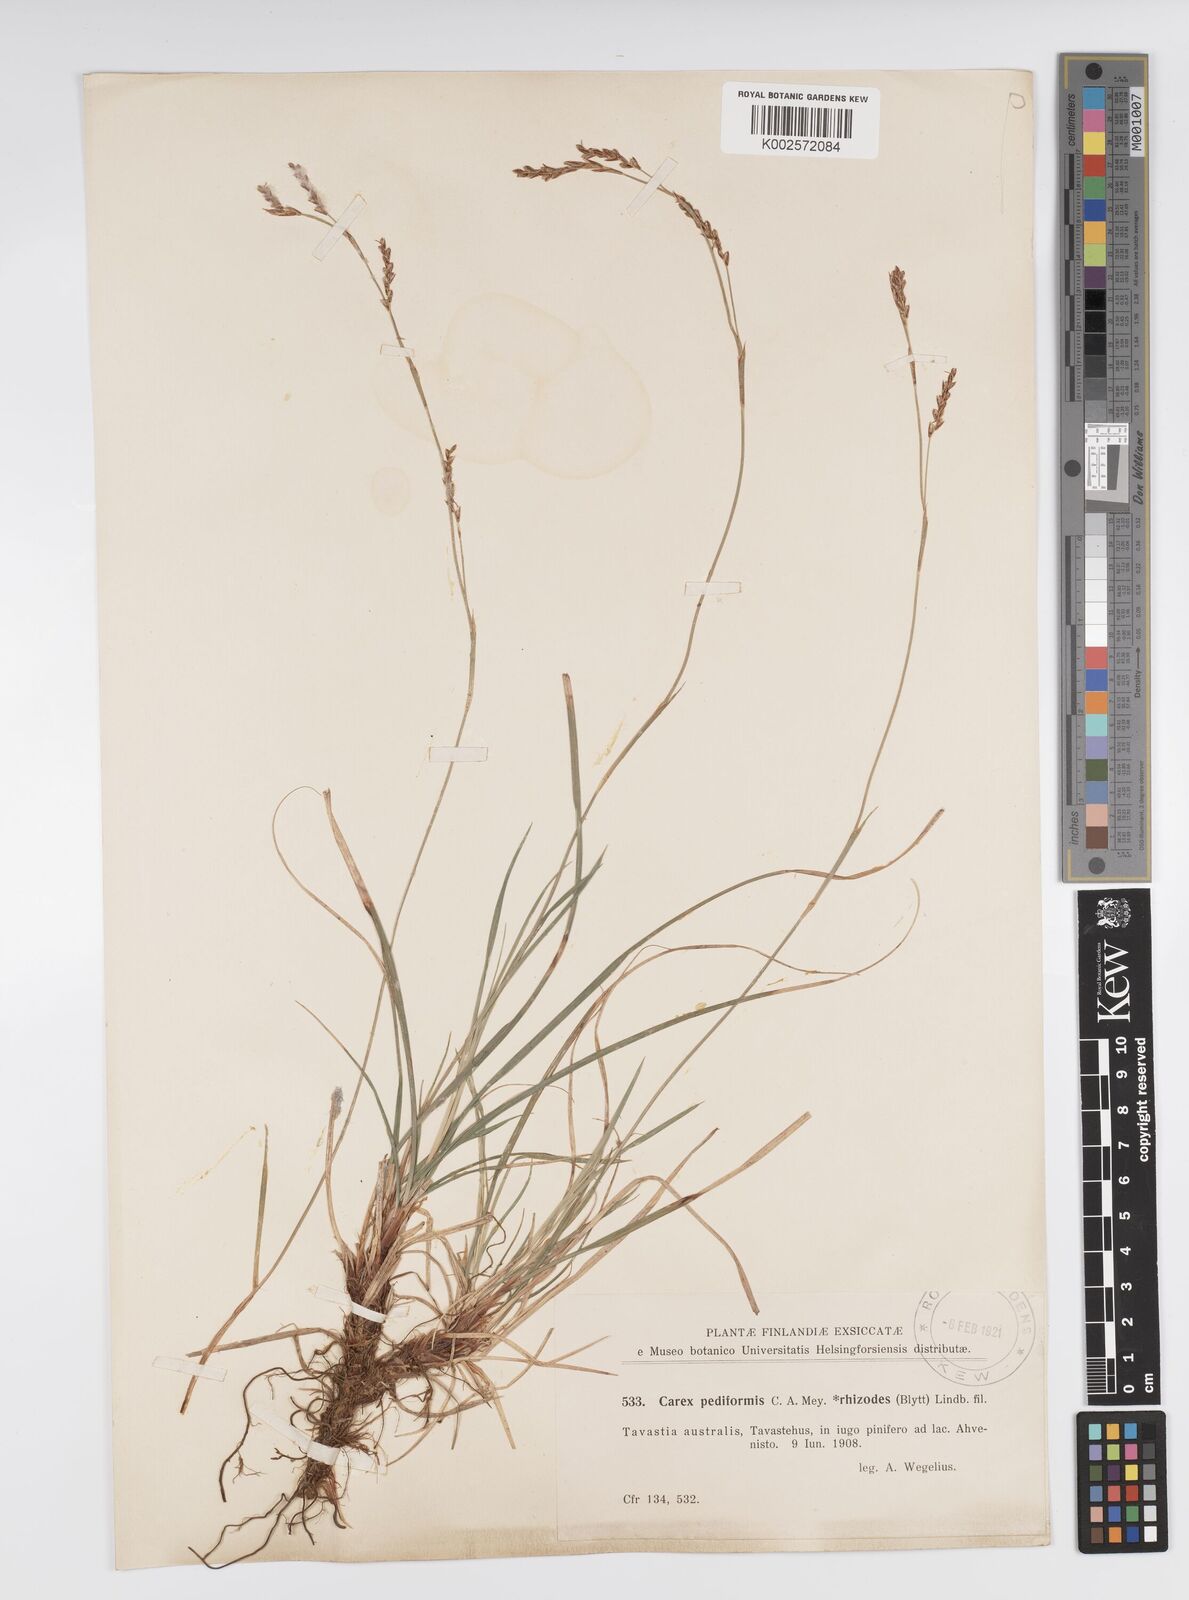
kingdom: Plantae
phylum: Tracheophyta
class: Liliopsida
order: Poales
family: Cyperaceae
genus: Carex
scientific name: Carex pediformis
